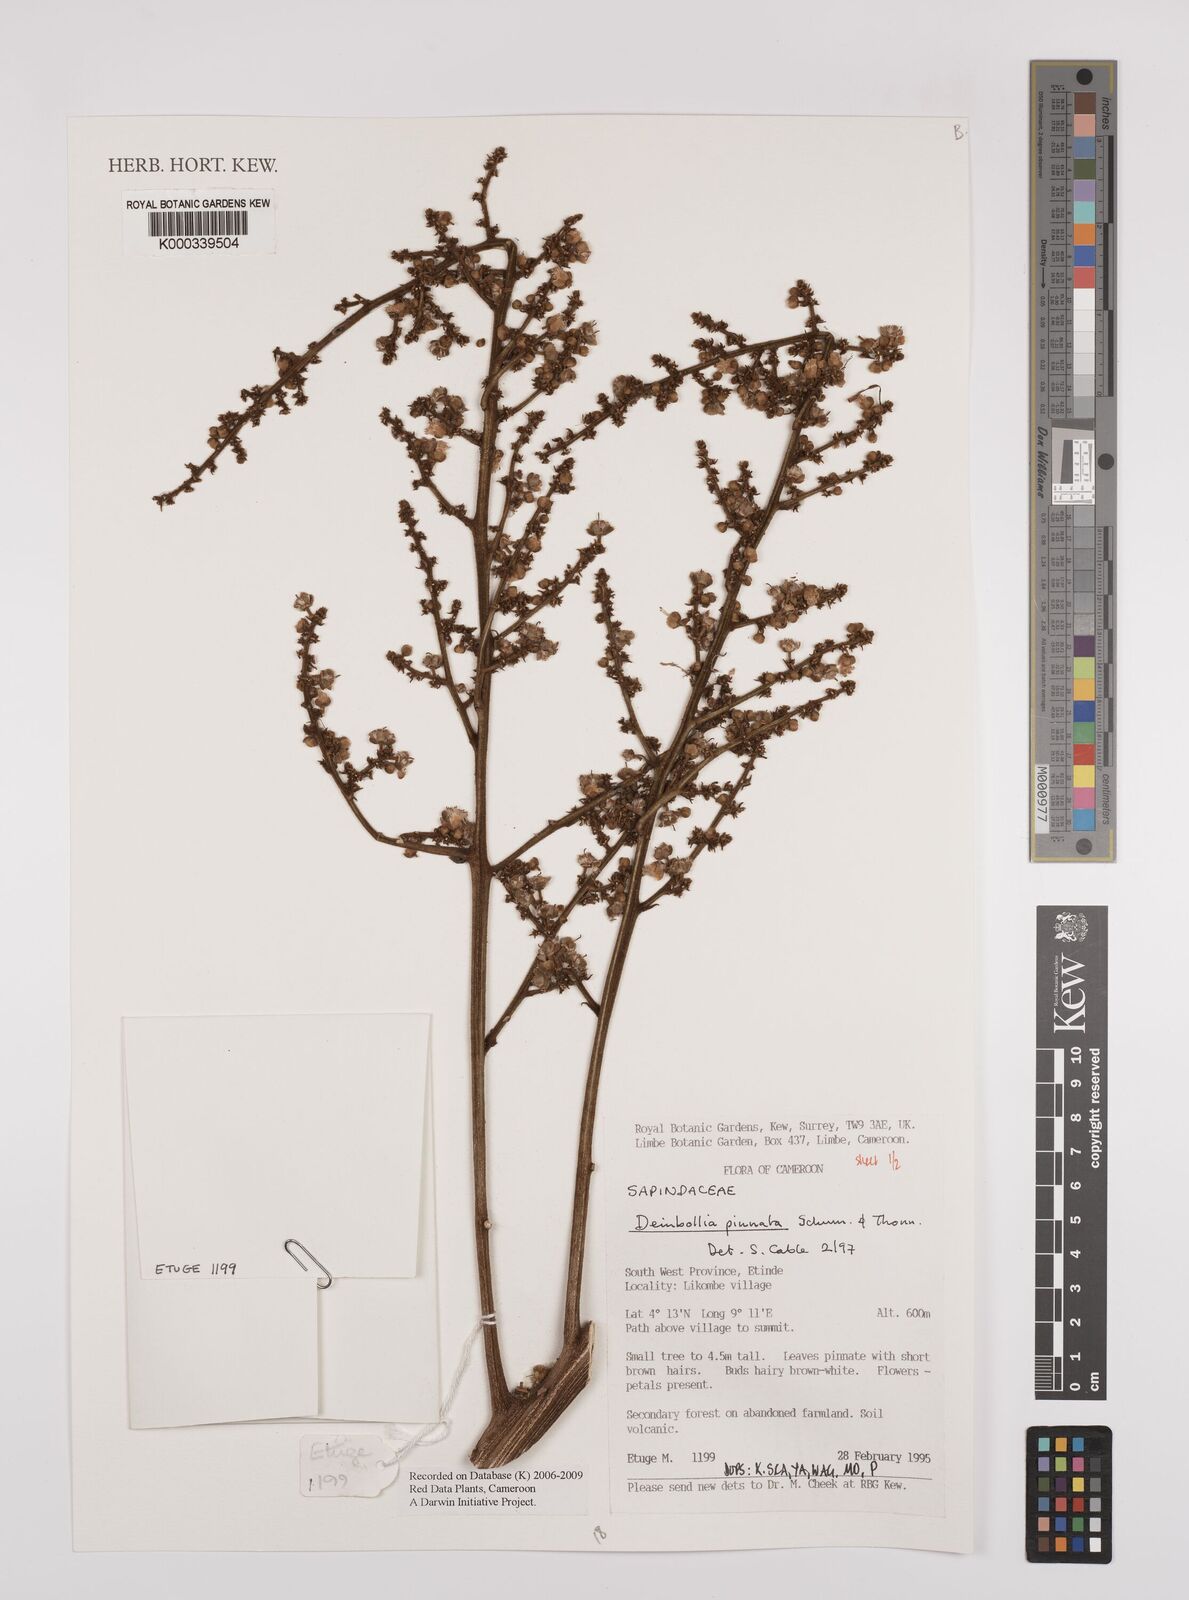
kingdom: Plantae
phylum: Tracheophyta
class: Magnoliopsida
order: Sapindales
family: Sapindaceae
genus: Deinbollia
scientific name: Deinbollia pinnata
